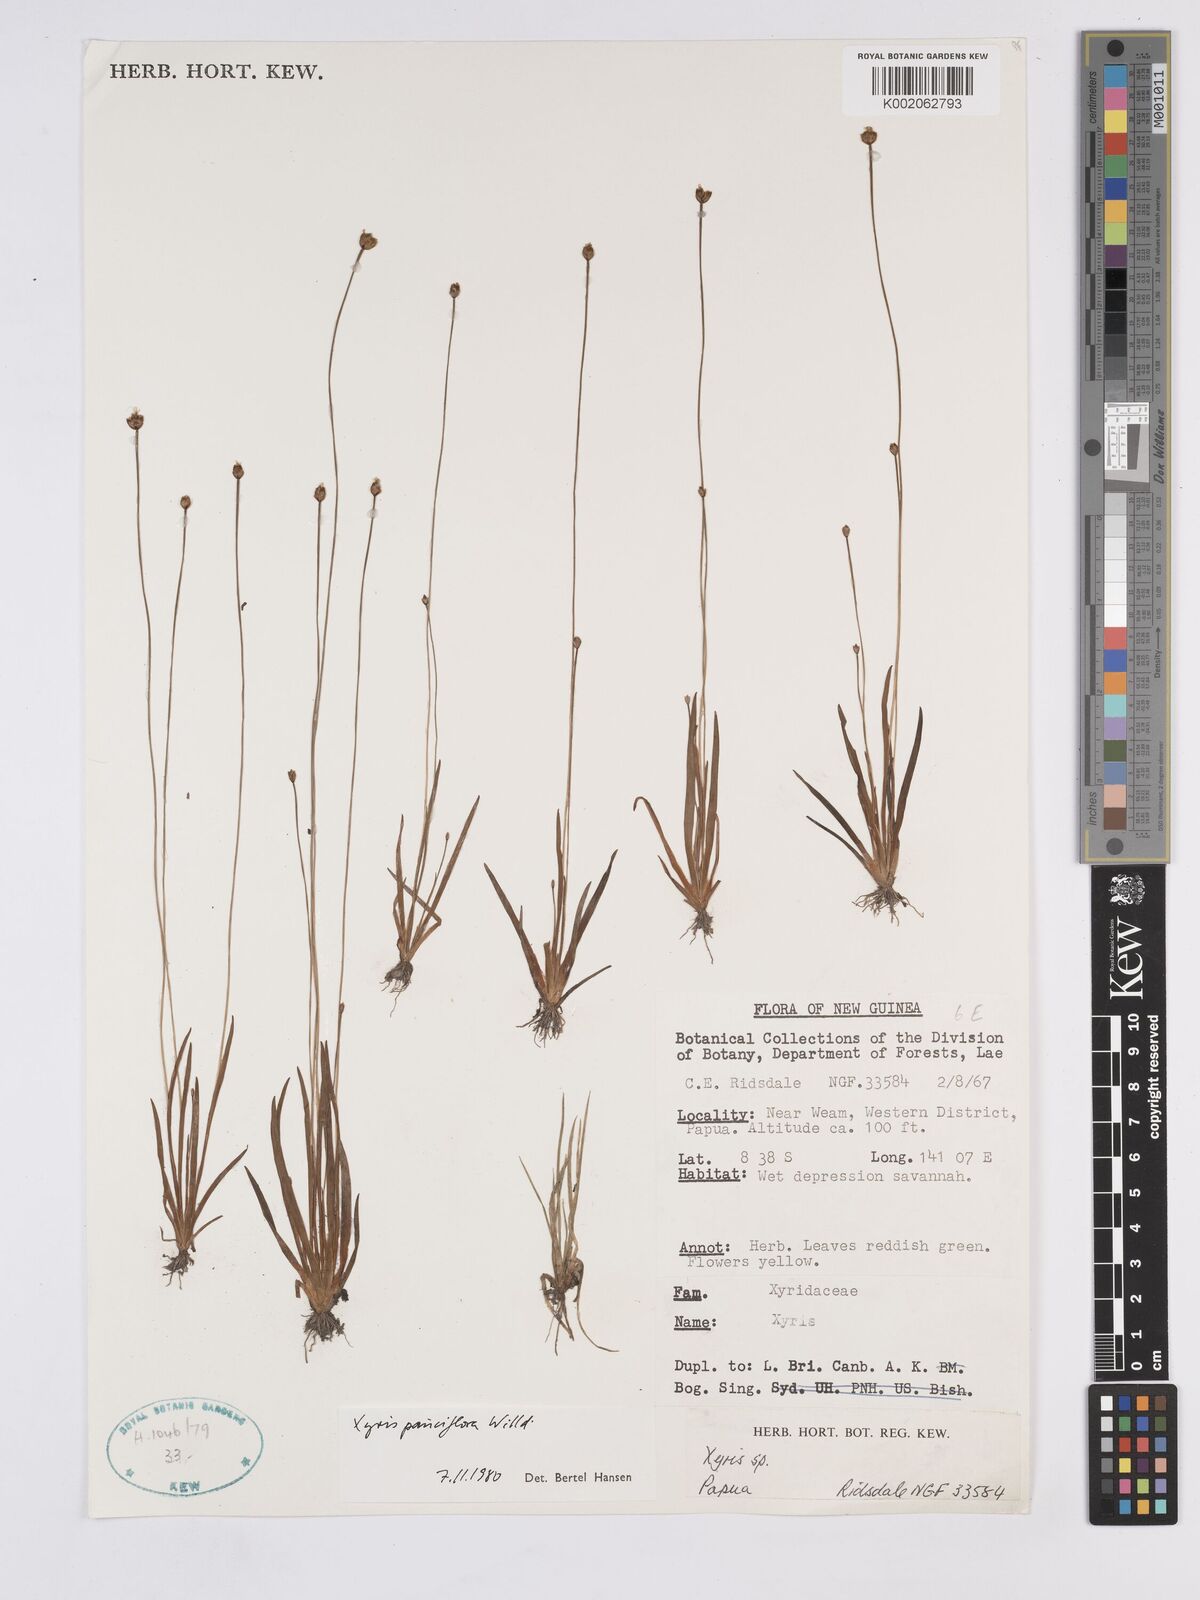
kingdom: Plantae
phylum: Tracheophyta
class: Liliopsida
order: Poales
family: Xyridaceae
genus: Xyris
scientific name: Xyris pauciflora
